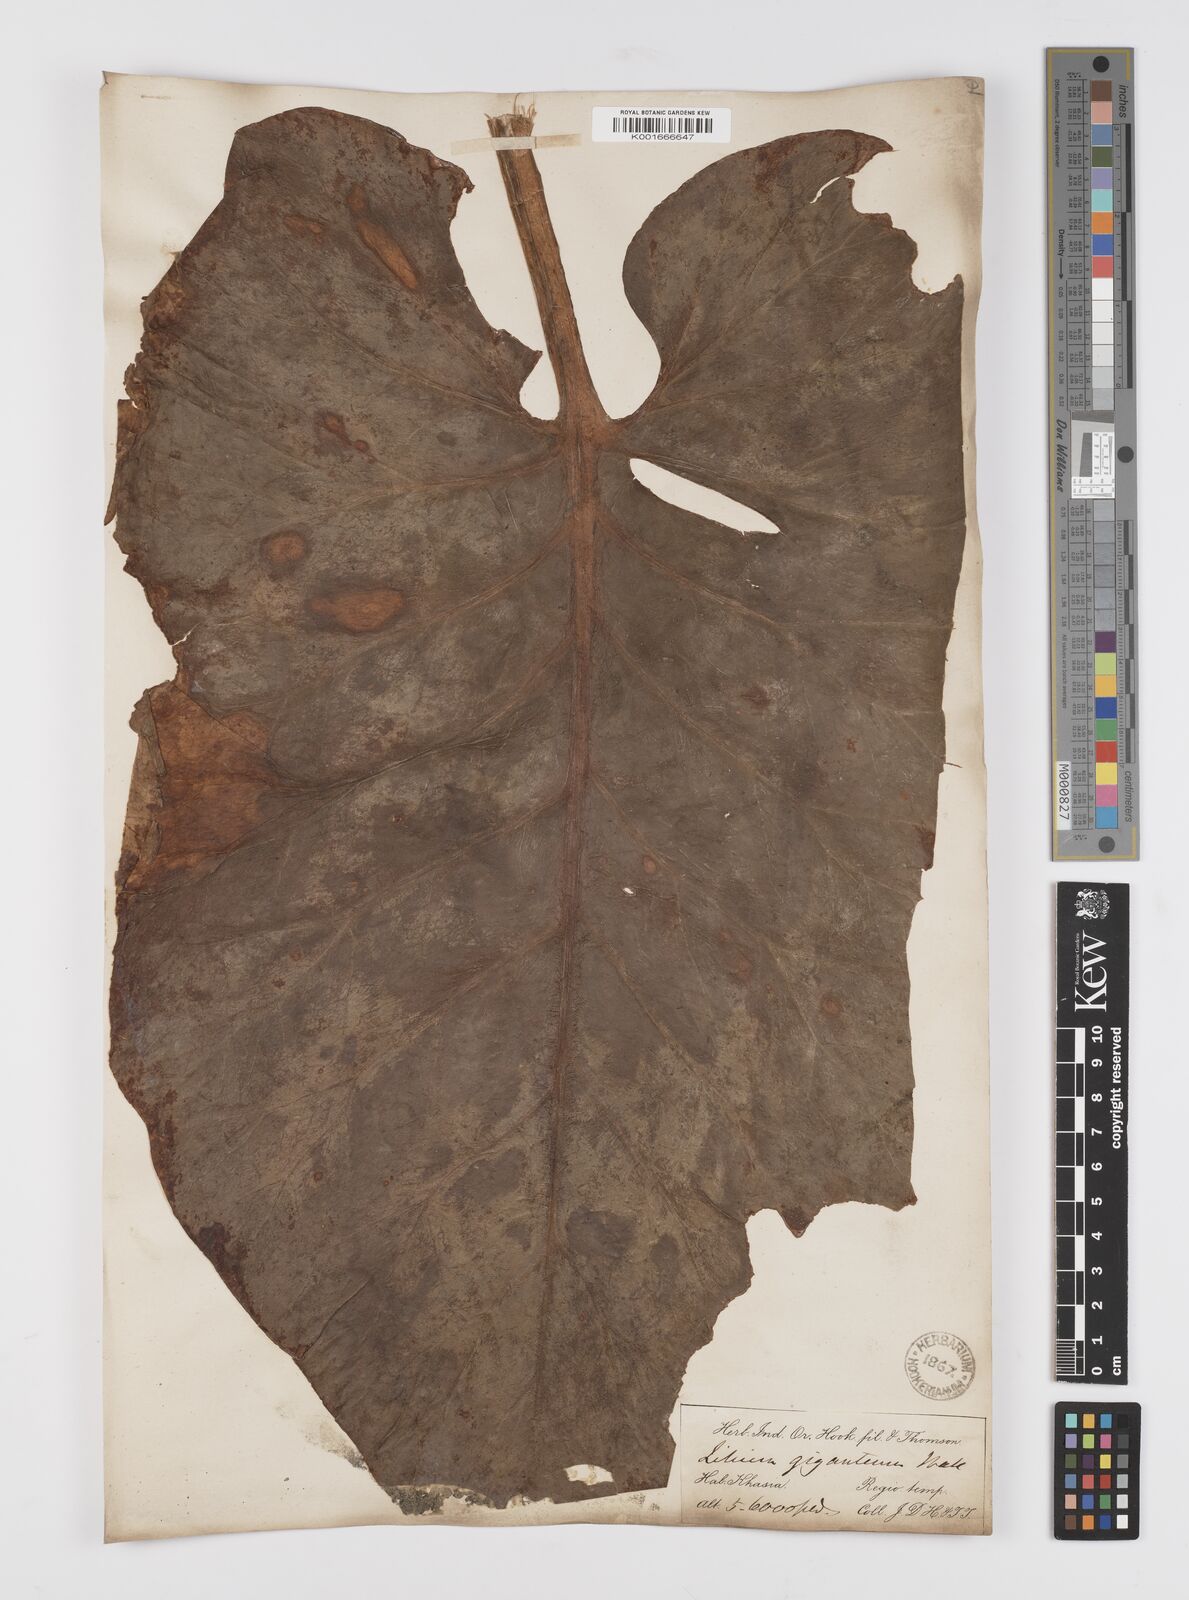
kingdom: Plantae
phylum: Tracheophyta
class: Liliopsida
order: Liliales
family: Liliaceae
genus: Cardiocrinum
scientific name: Cardiocrinum giganteum
